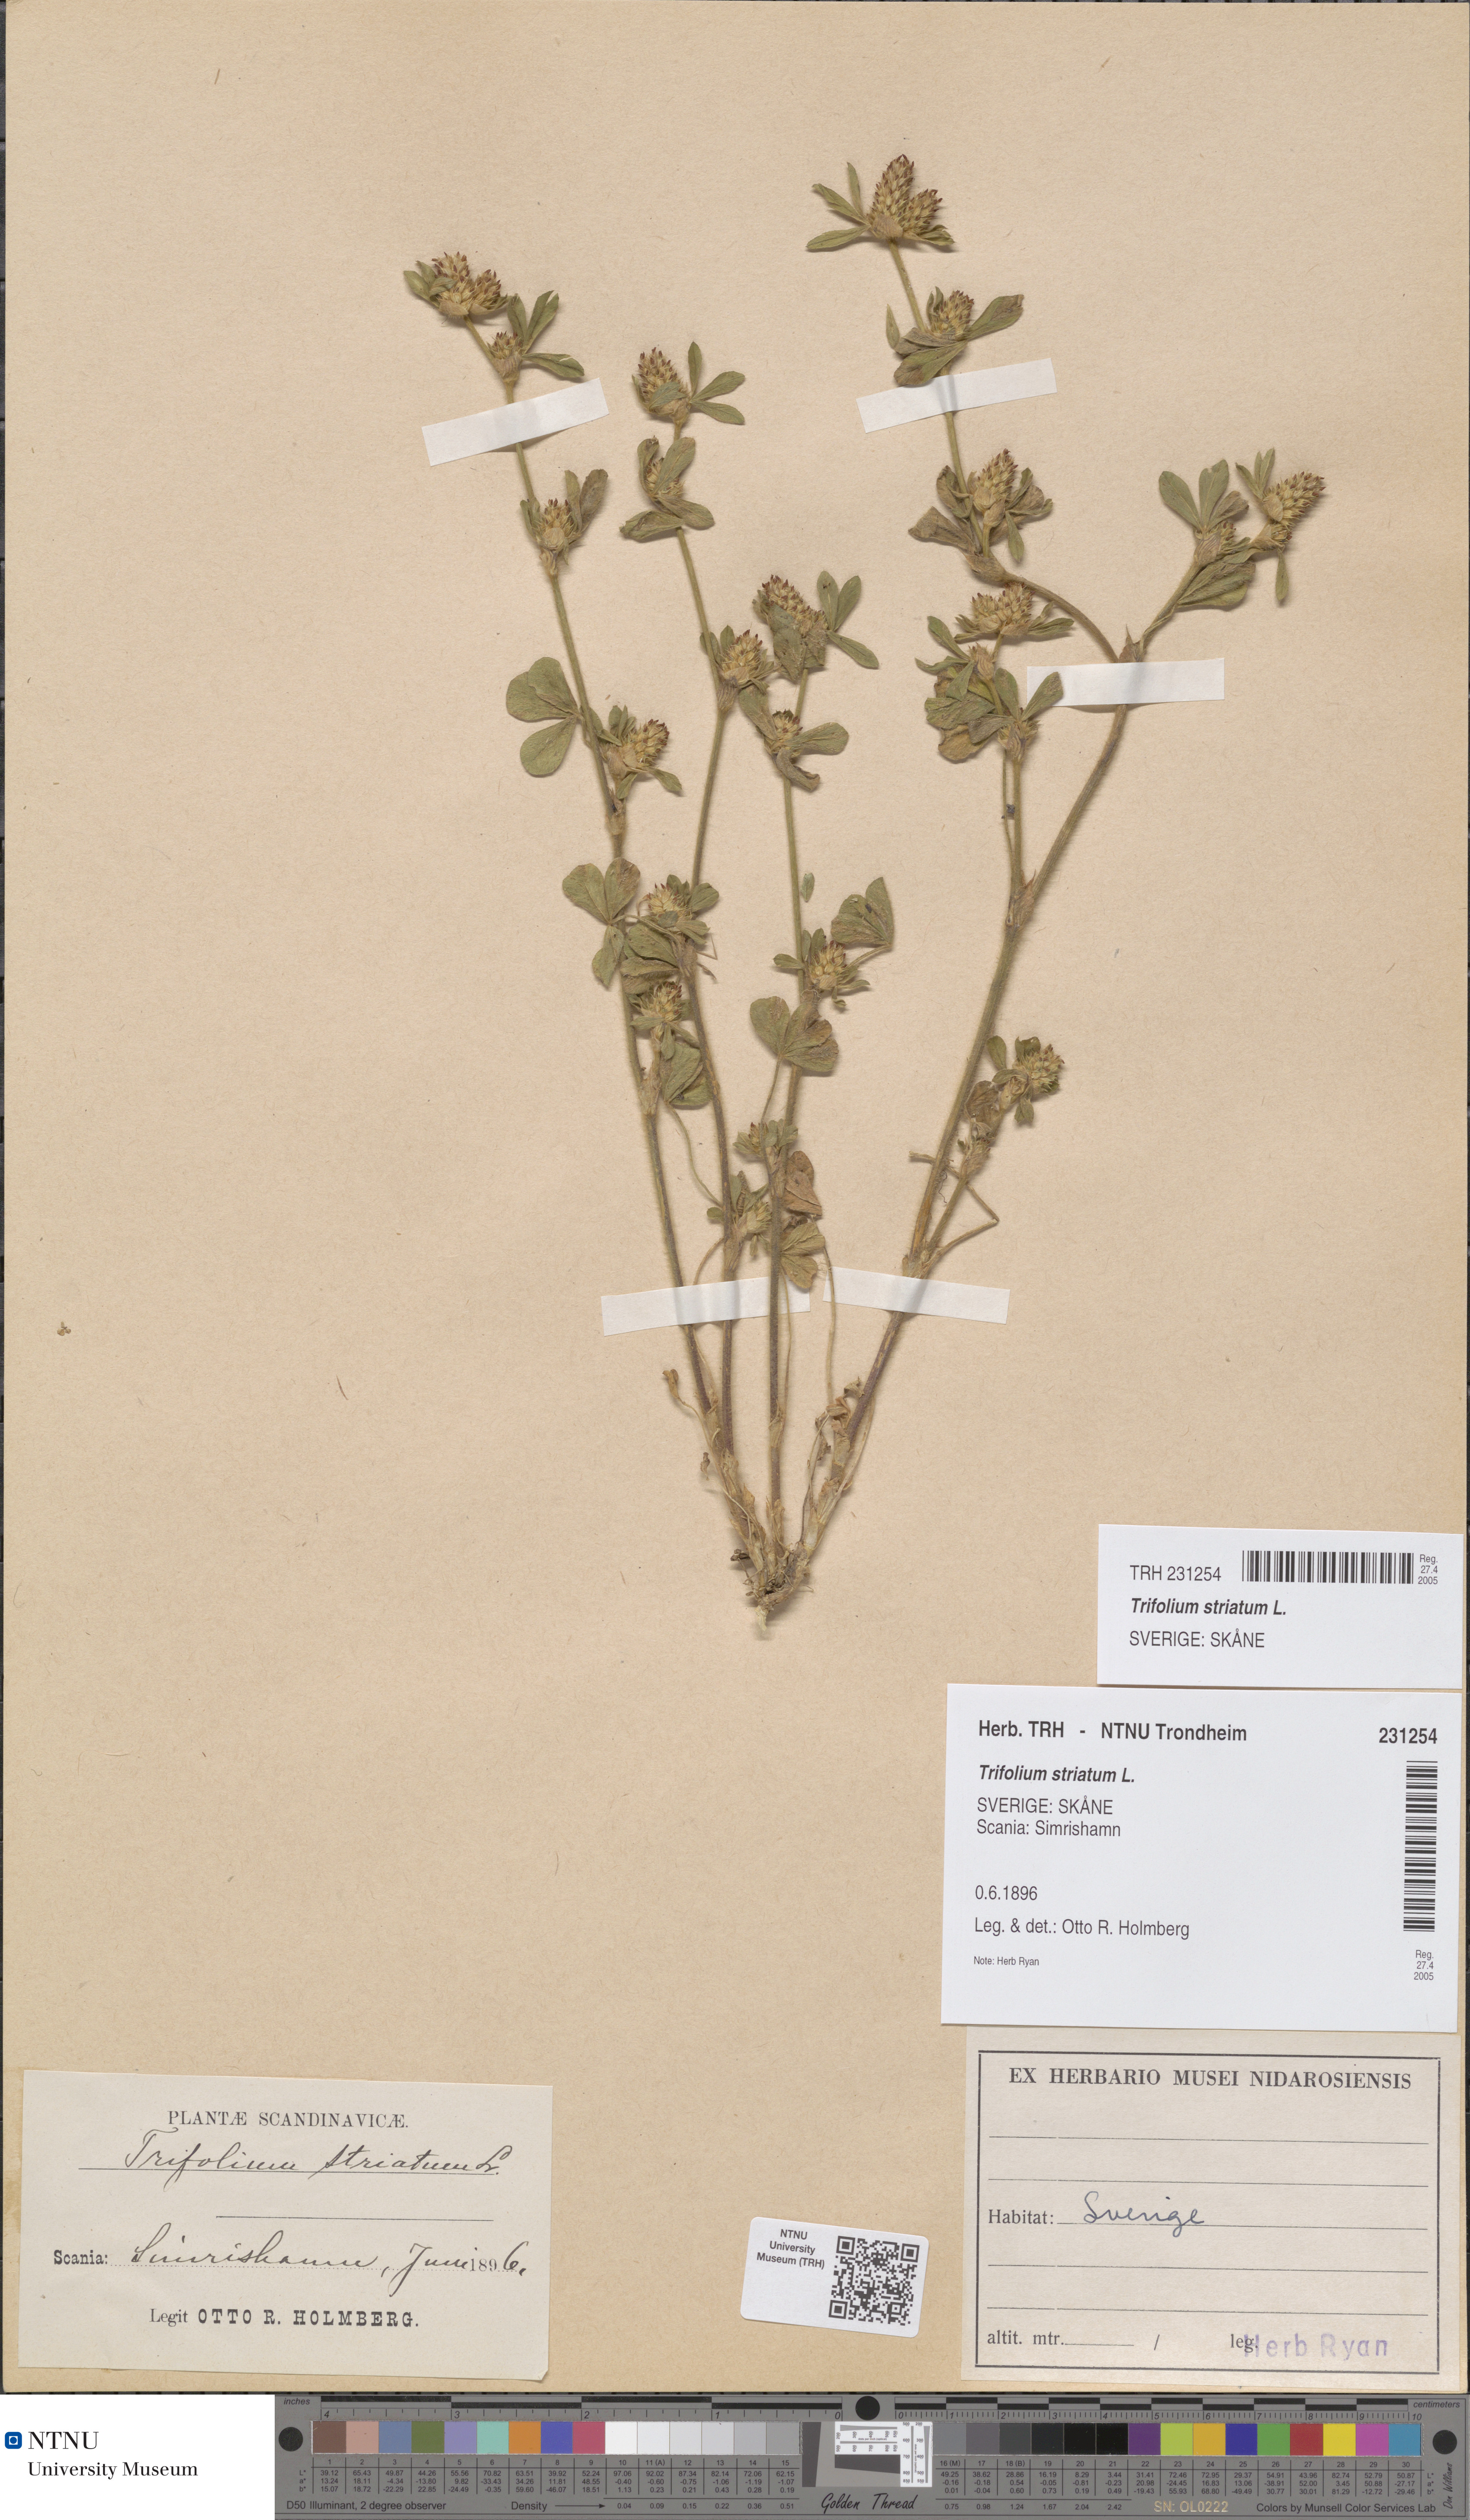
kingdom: Plantae
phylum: Tracheophyta
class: Magnoliopsida
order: Fabales
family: Fabaceae
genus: Trifolium
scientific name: Trifolium striatum
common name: Knotted clover
